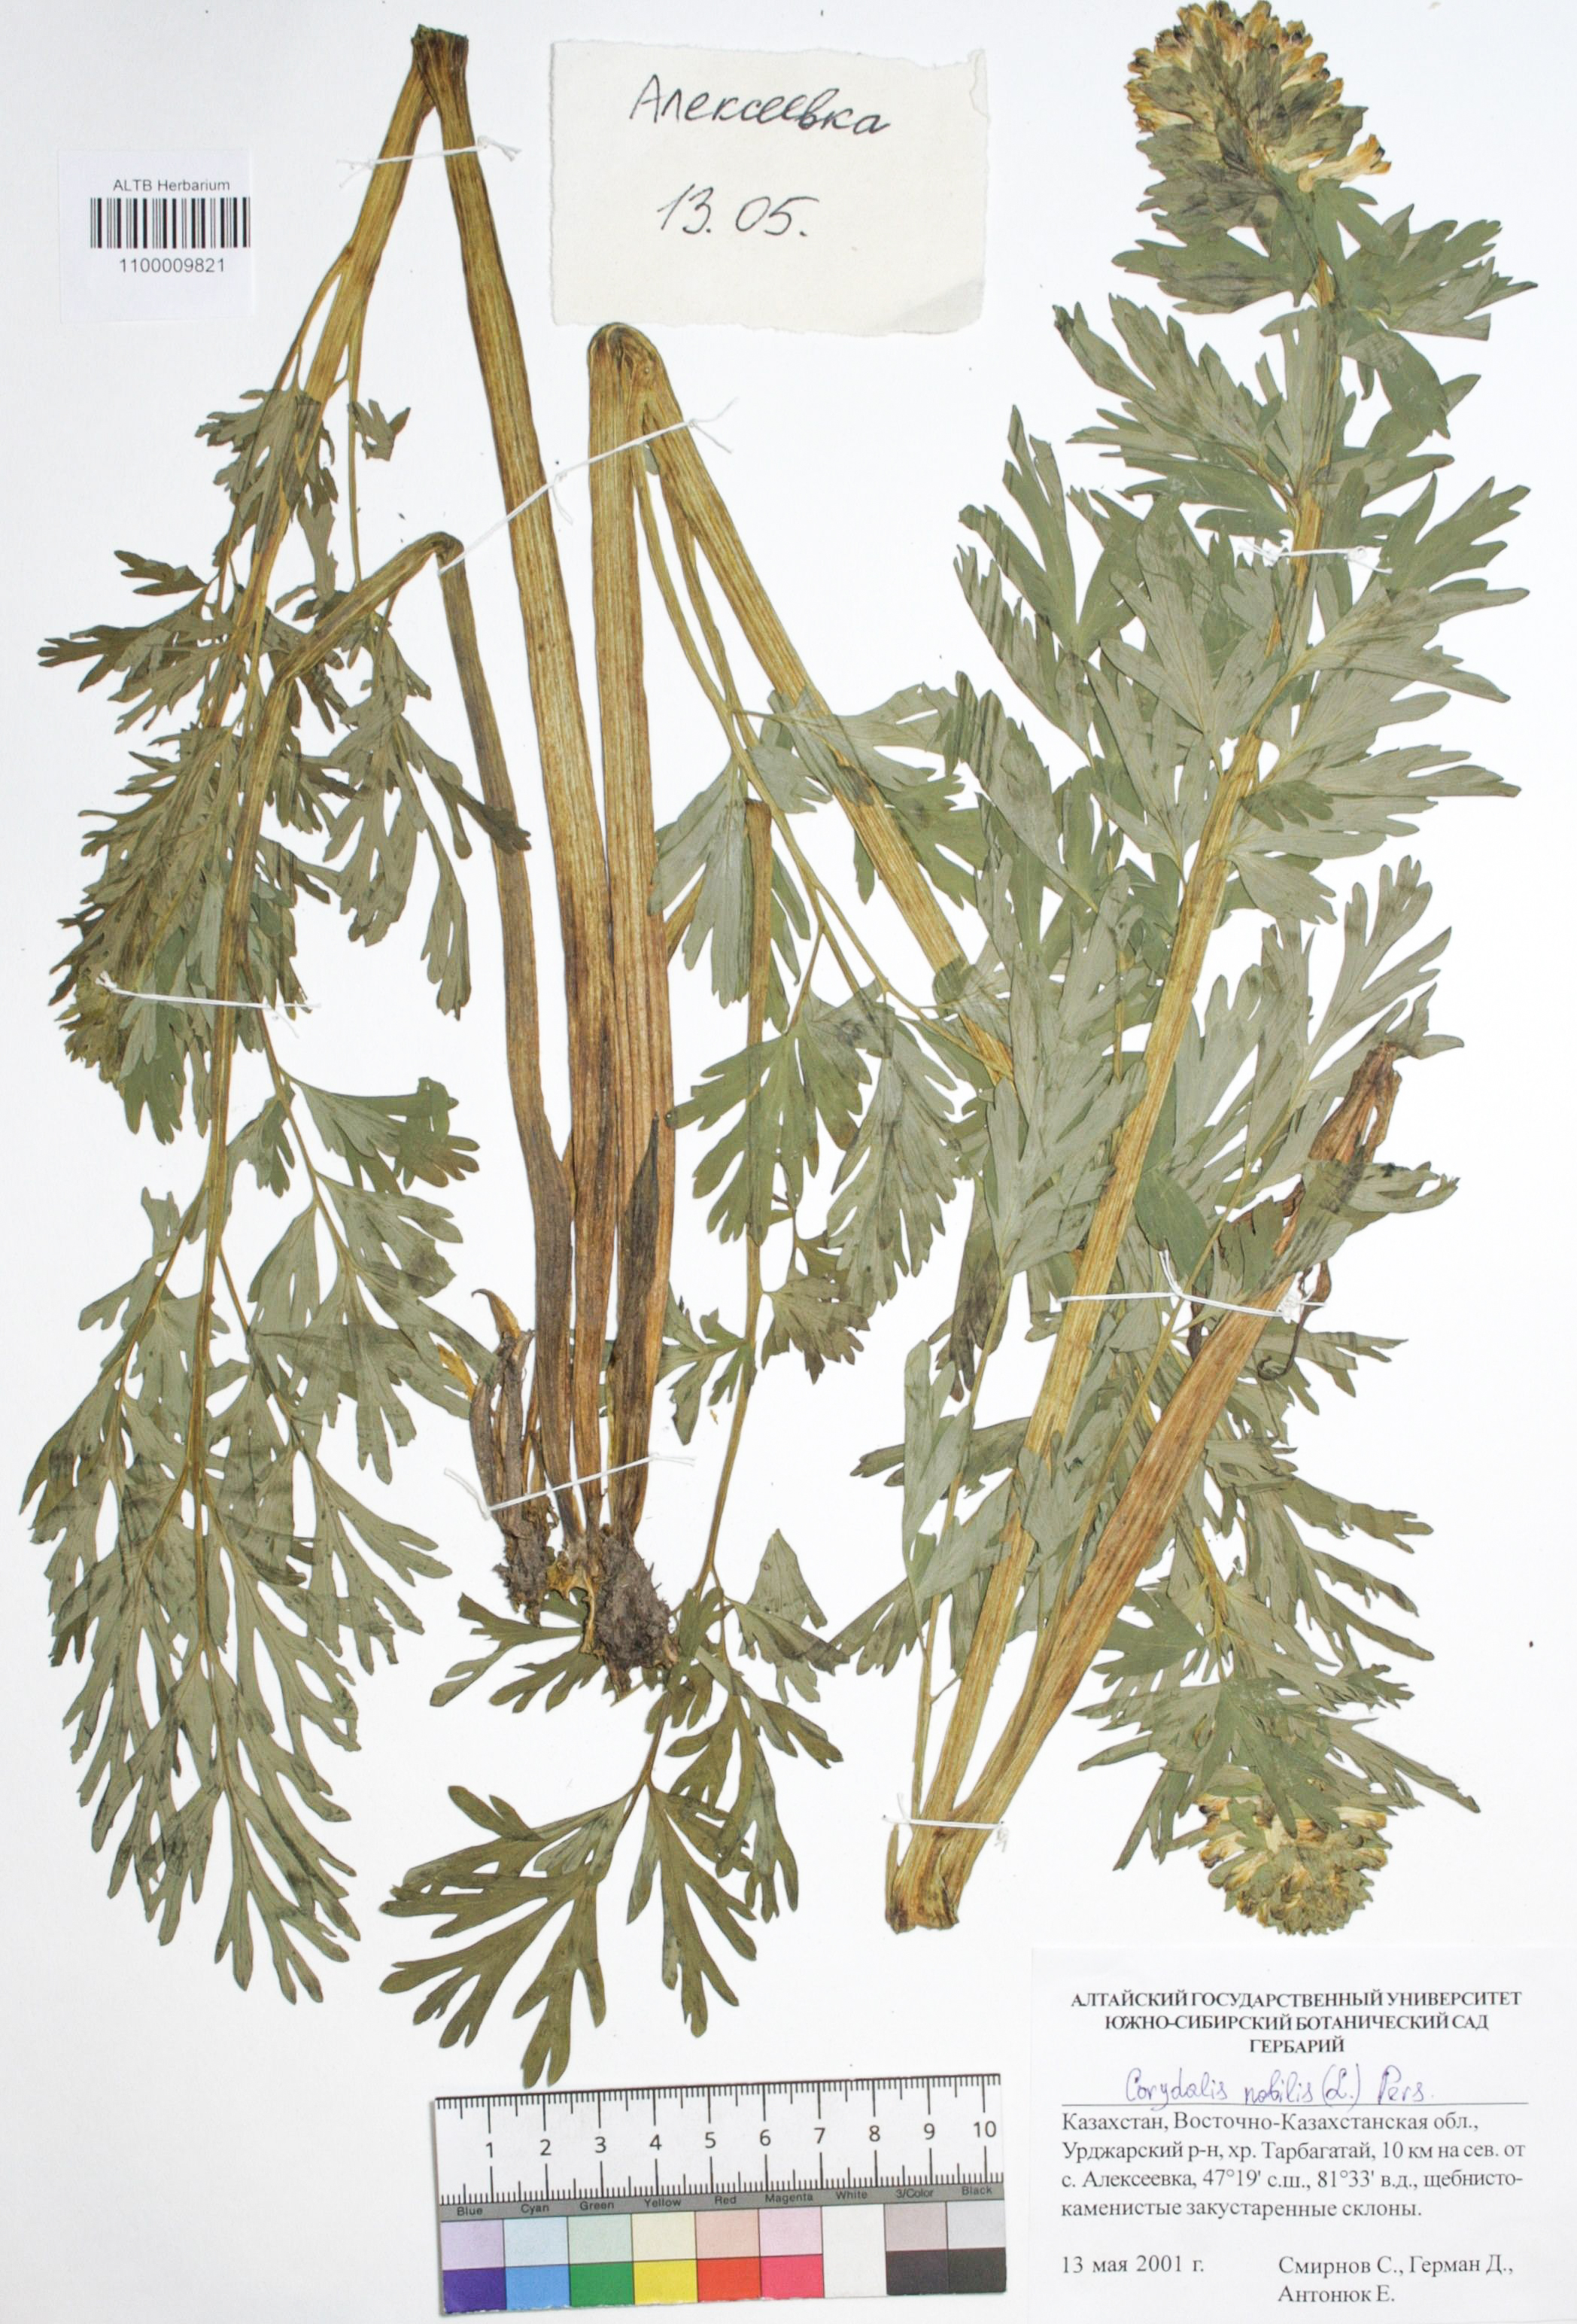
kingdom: Plantae
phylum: Tracheophyta
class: Magnoliopsida
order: Ranunculales
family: Papaveraceae
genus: Corydalis
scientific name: Corydalis nobilis
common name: Siberian corydalis
